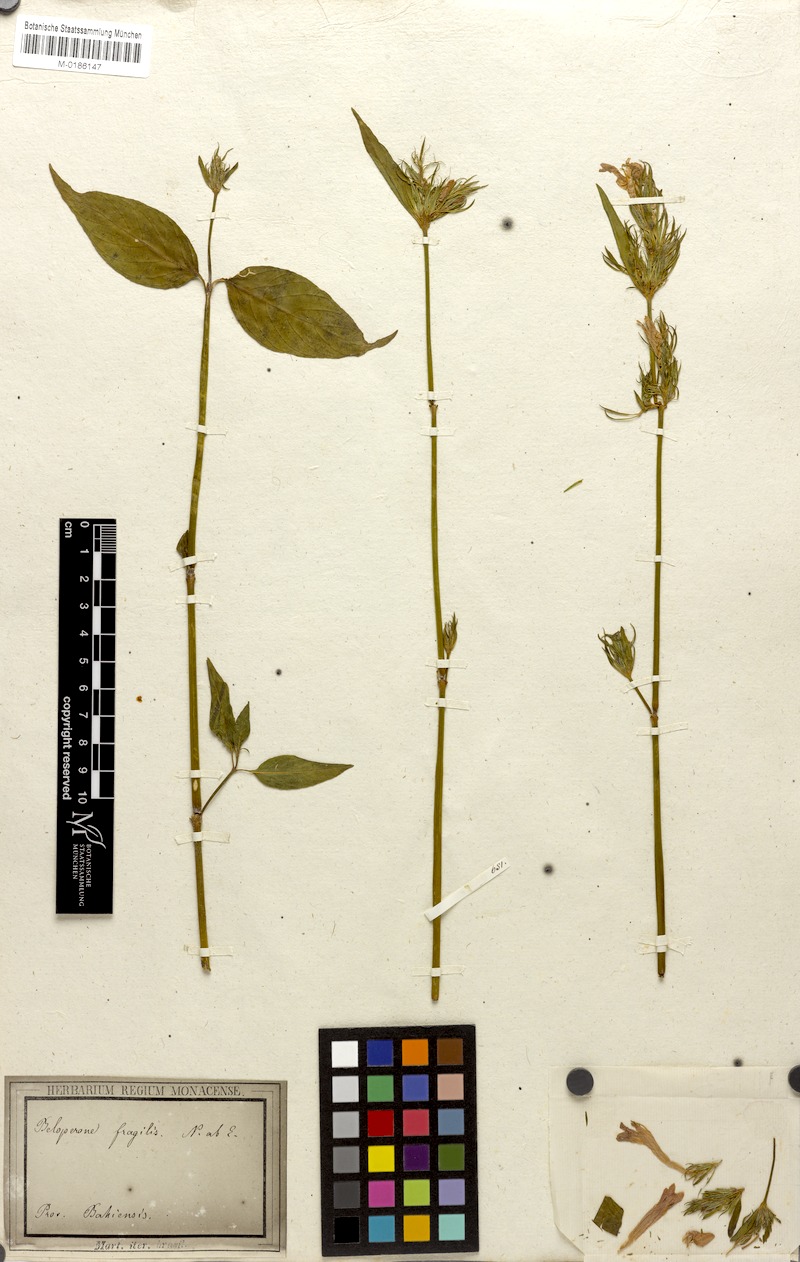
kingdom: Plantae
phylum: Tracheophyta
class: Magnoliopsida
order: Lamiales
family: Acanthaceae
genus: Justicia
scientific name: Justicia Beloperone fragilis
